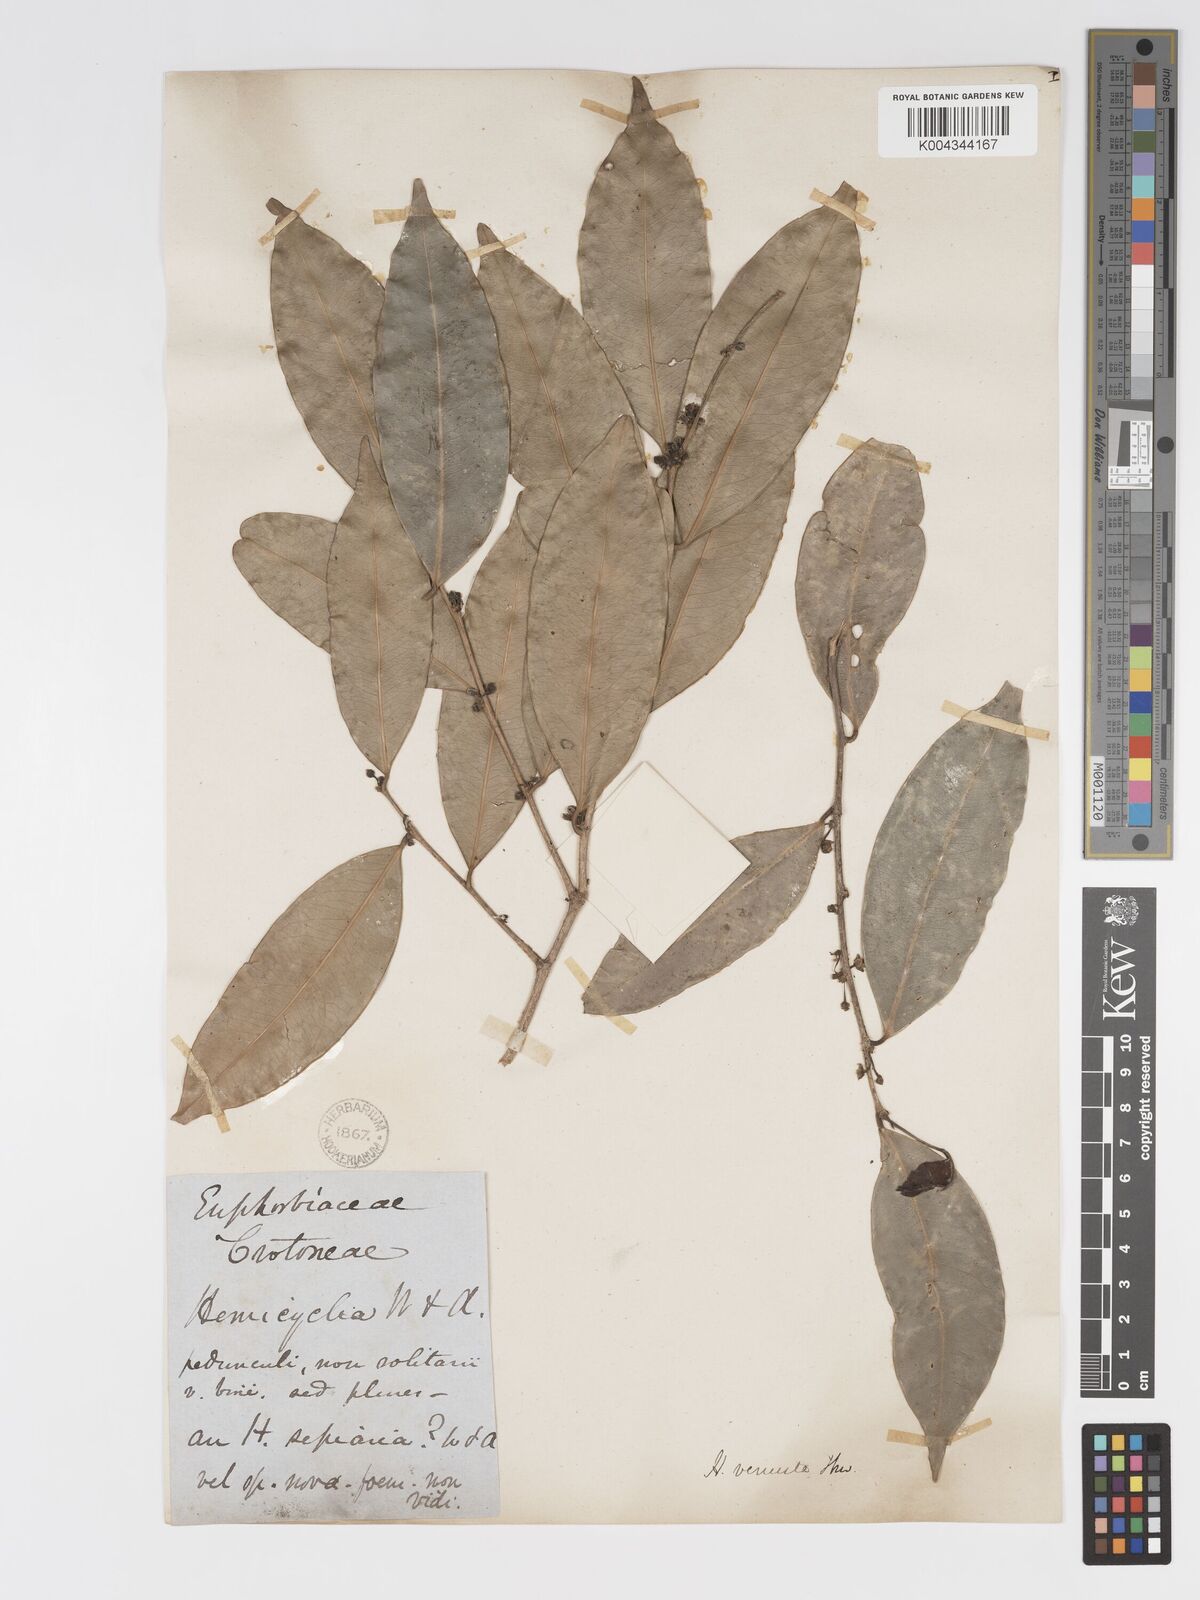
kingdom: Plantae
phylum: Tracheophyta
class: Magnoliopsida
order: Malpighiales
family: Putranjivaceae
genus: Drypetes
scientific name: Drypetes venusta
